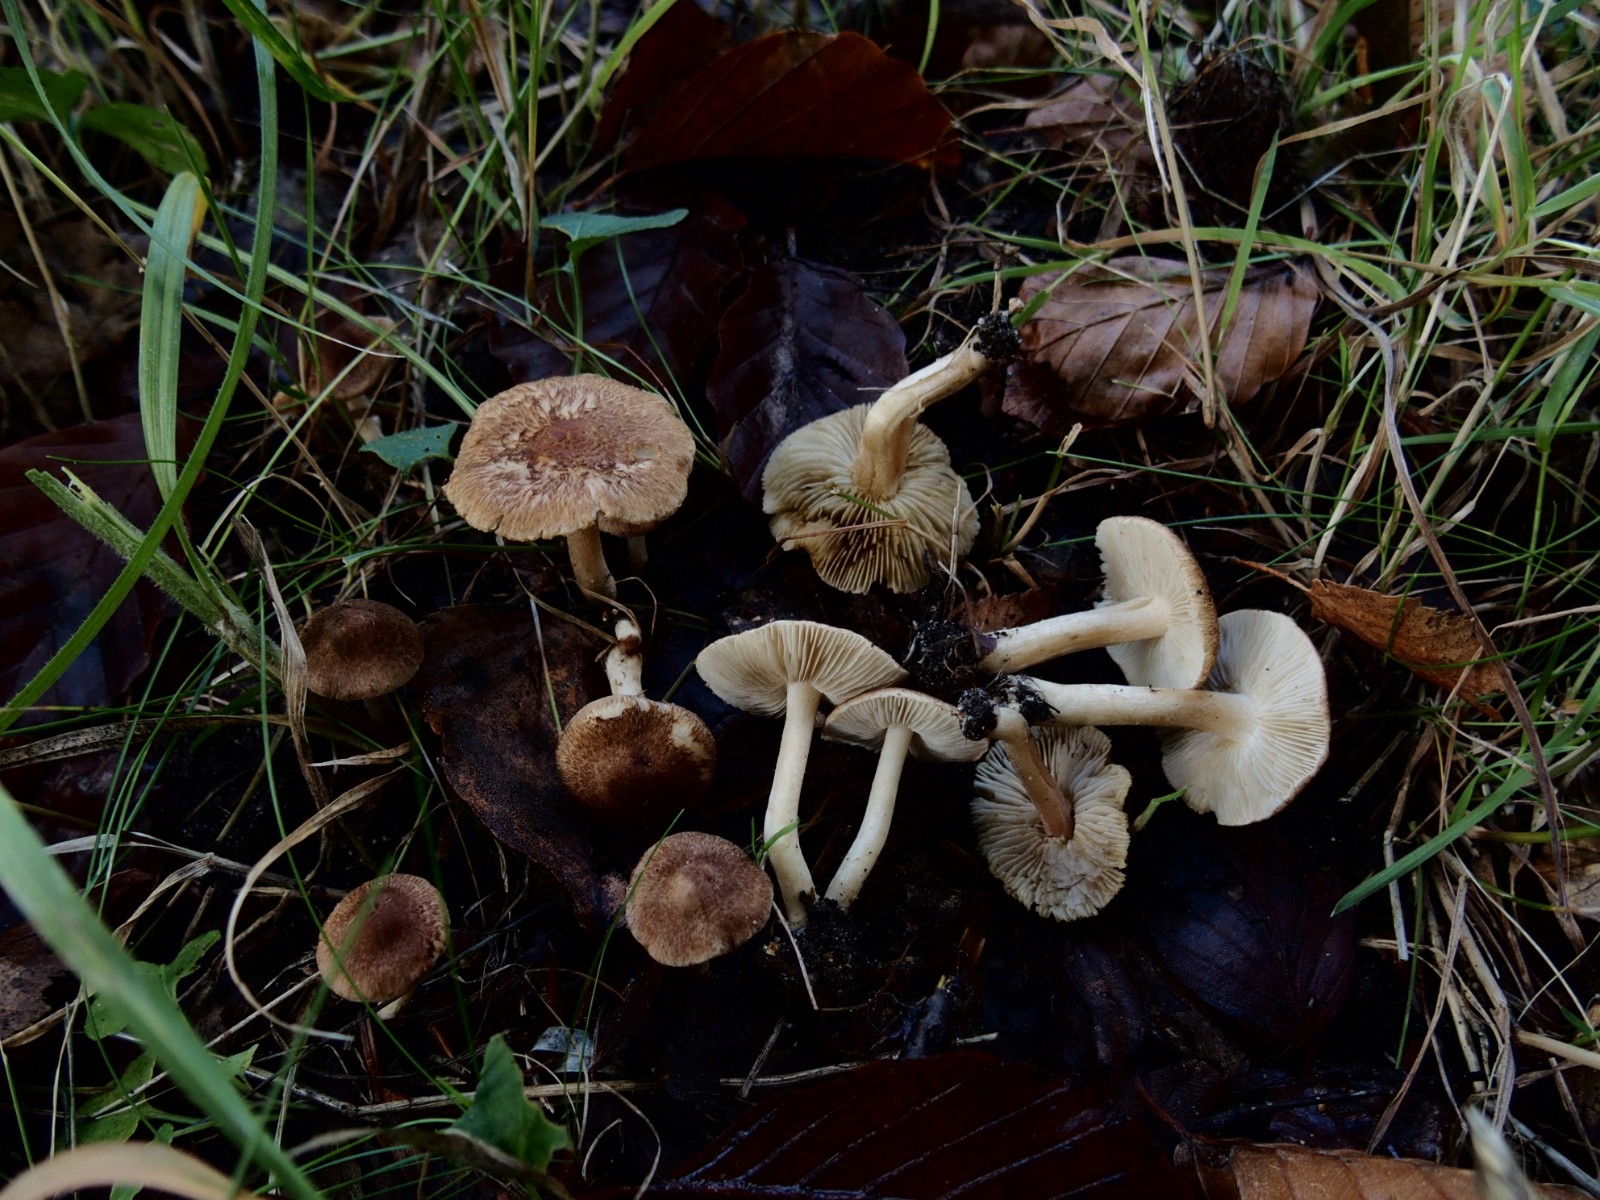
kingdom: Fungi
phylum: Basidiomycota
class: Agaricomycetes
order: Agaricales
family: Inocybaceae
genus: Inocybe
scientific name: Inocybe
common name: trævlhat
